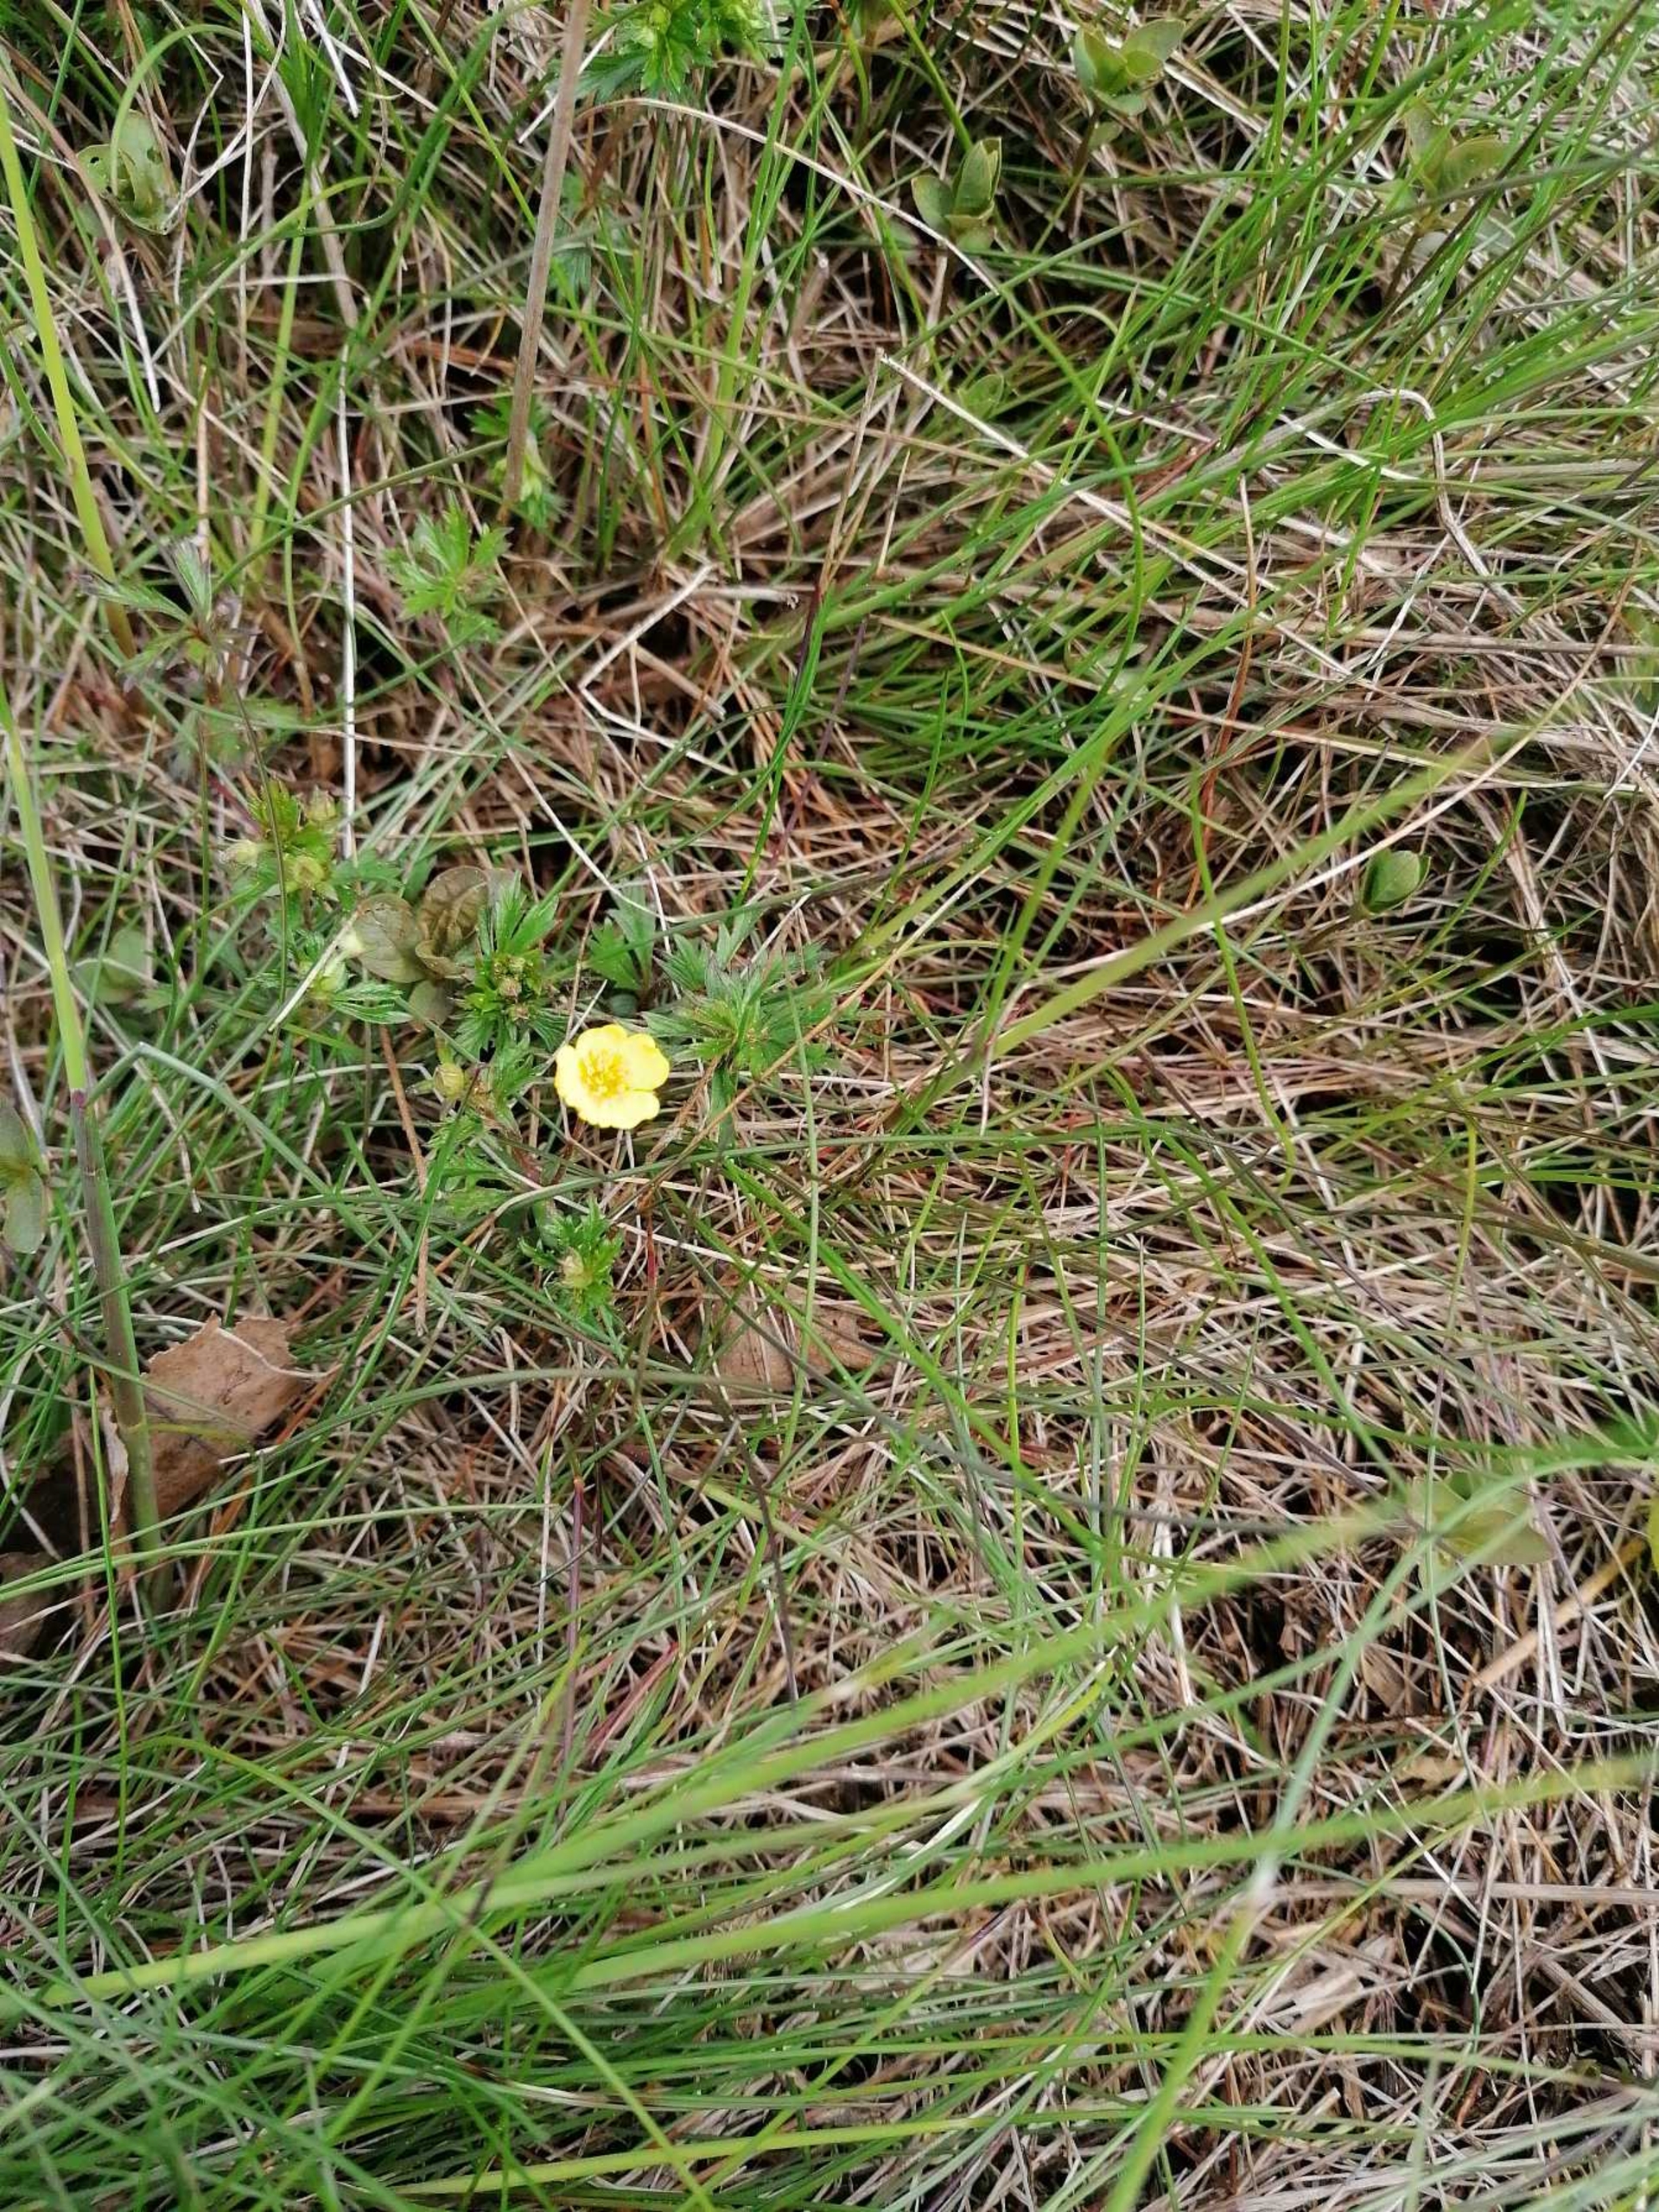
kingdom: Plantae
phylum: Tracheophyta
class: Magnoliopsida
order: Rosales
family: Rosaceae
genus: Potentilla
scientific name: Potentilla erecta
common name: Tormentil
